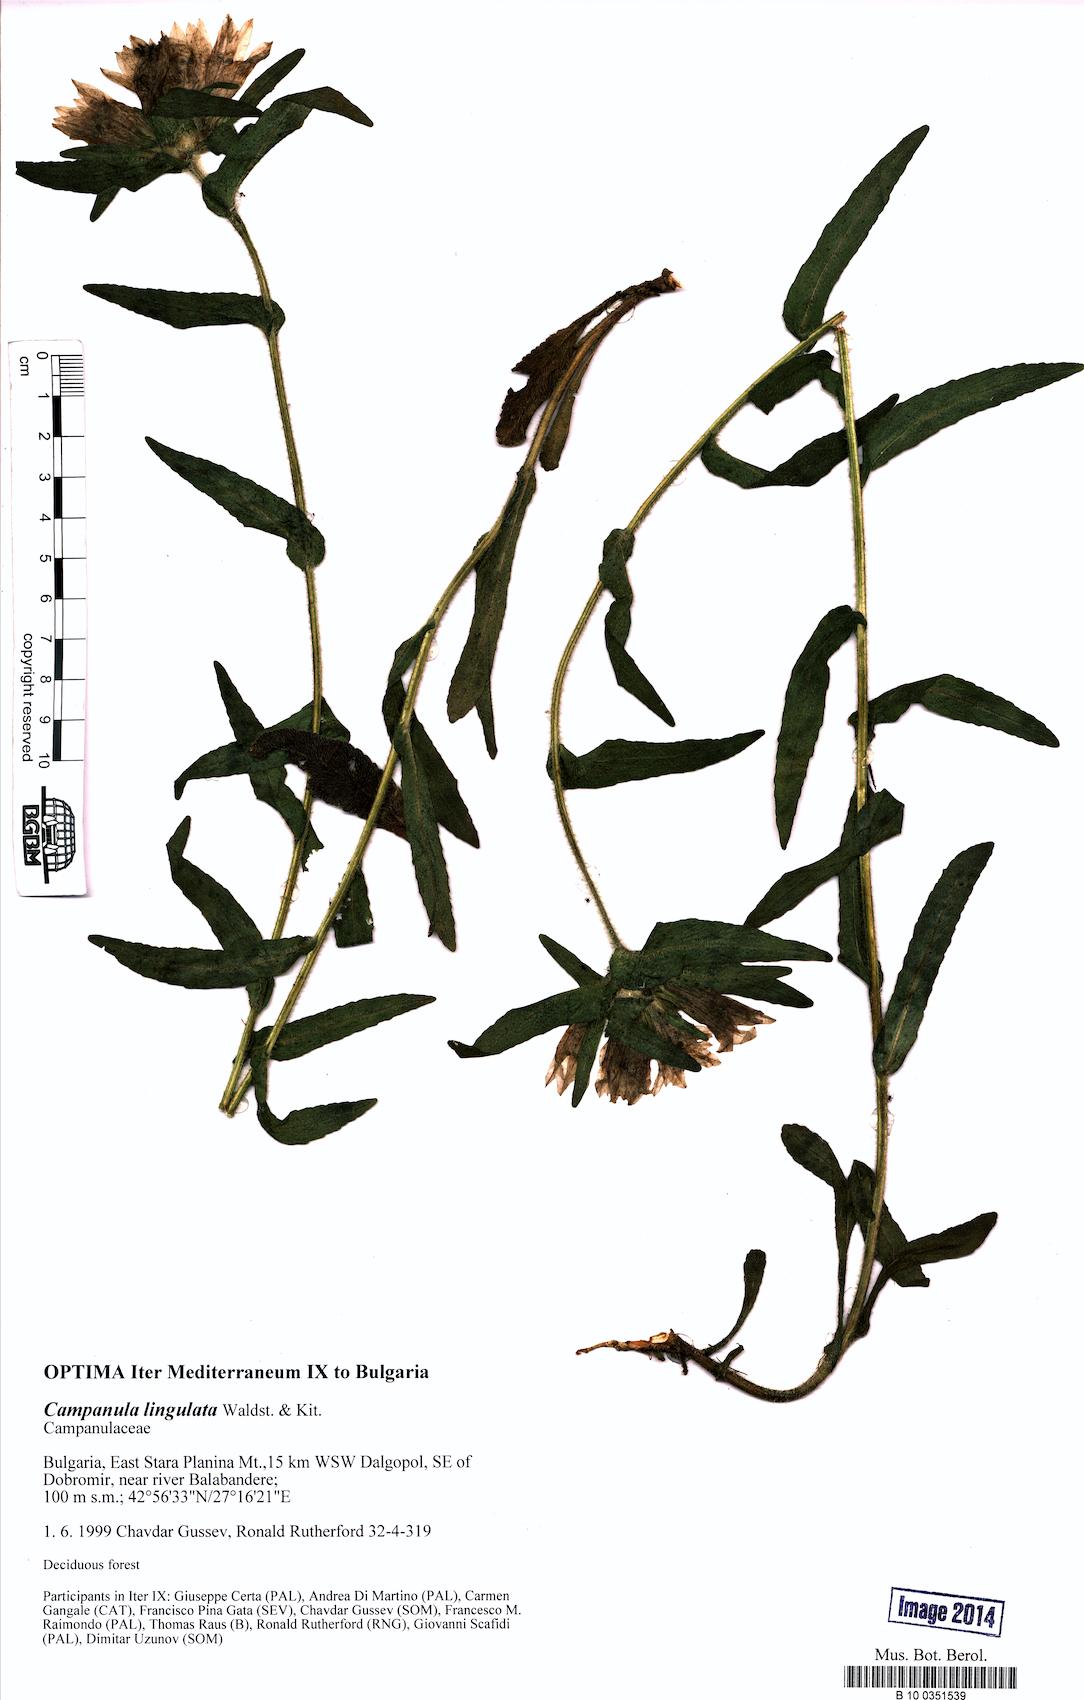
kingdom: Plantae
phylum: Tracheophyta
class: Magnoliopsida
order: Asterales
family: Campanulaceae
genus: Campanula
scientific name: Campanula lingulata
